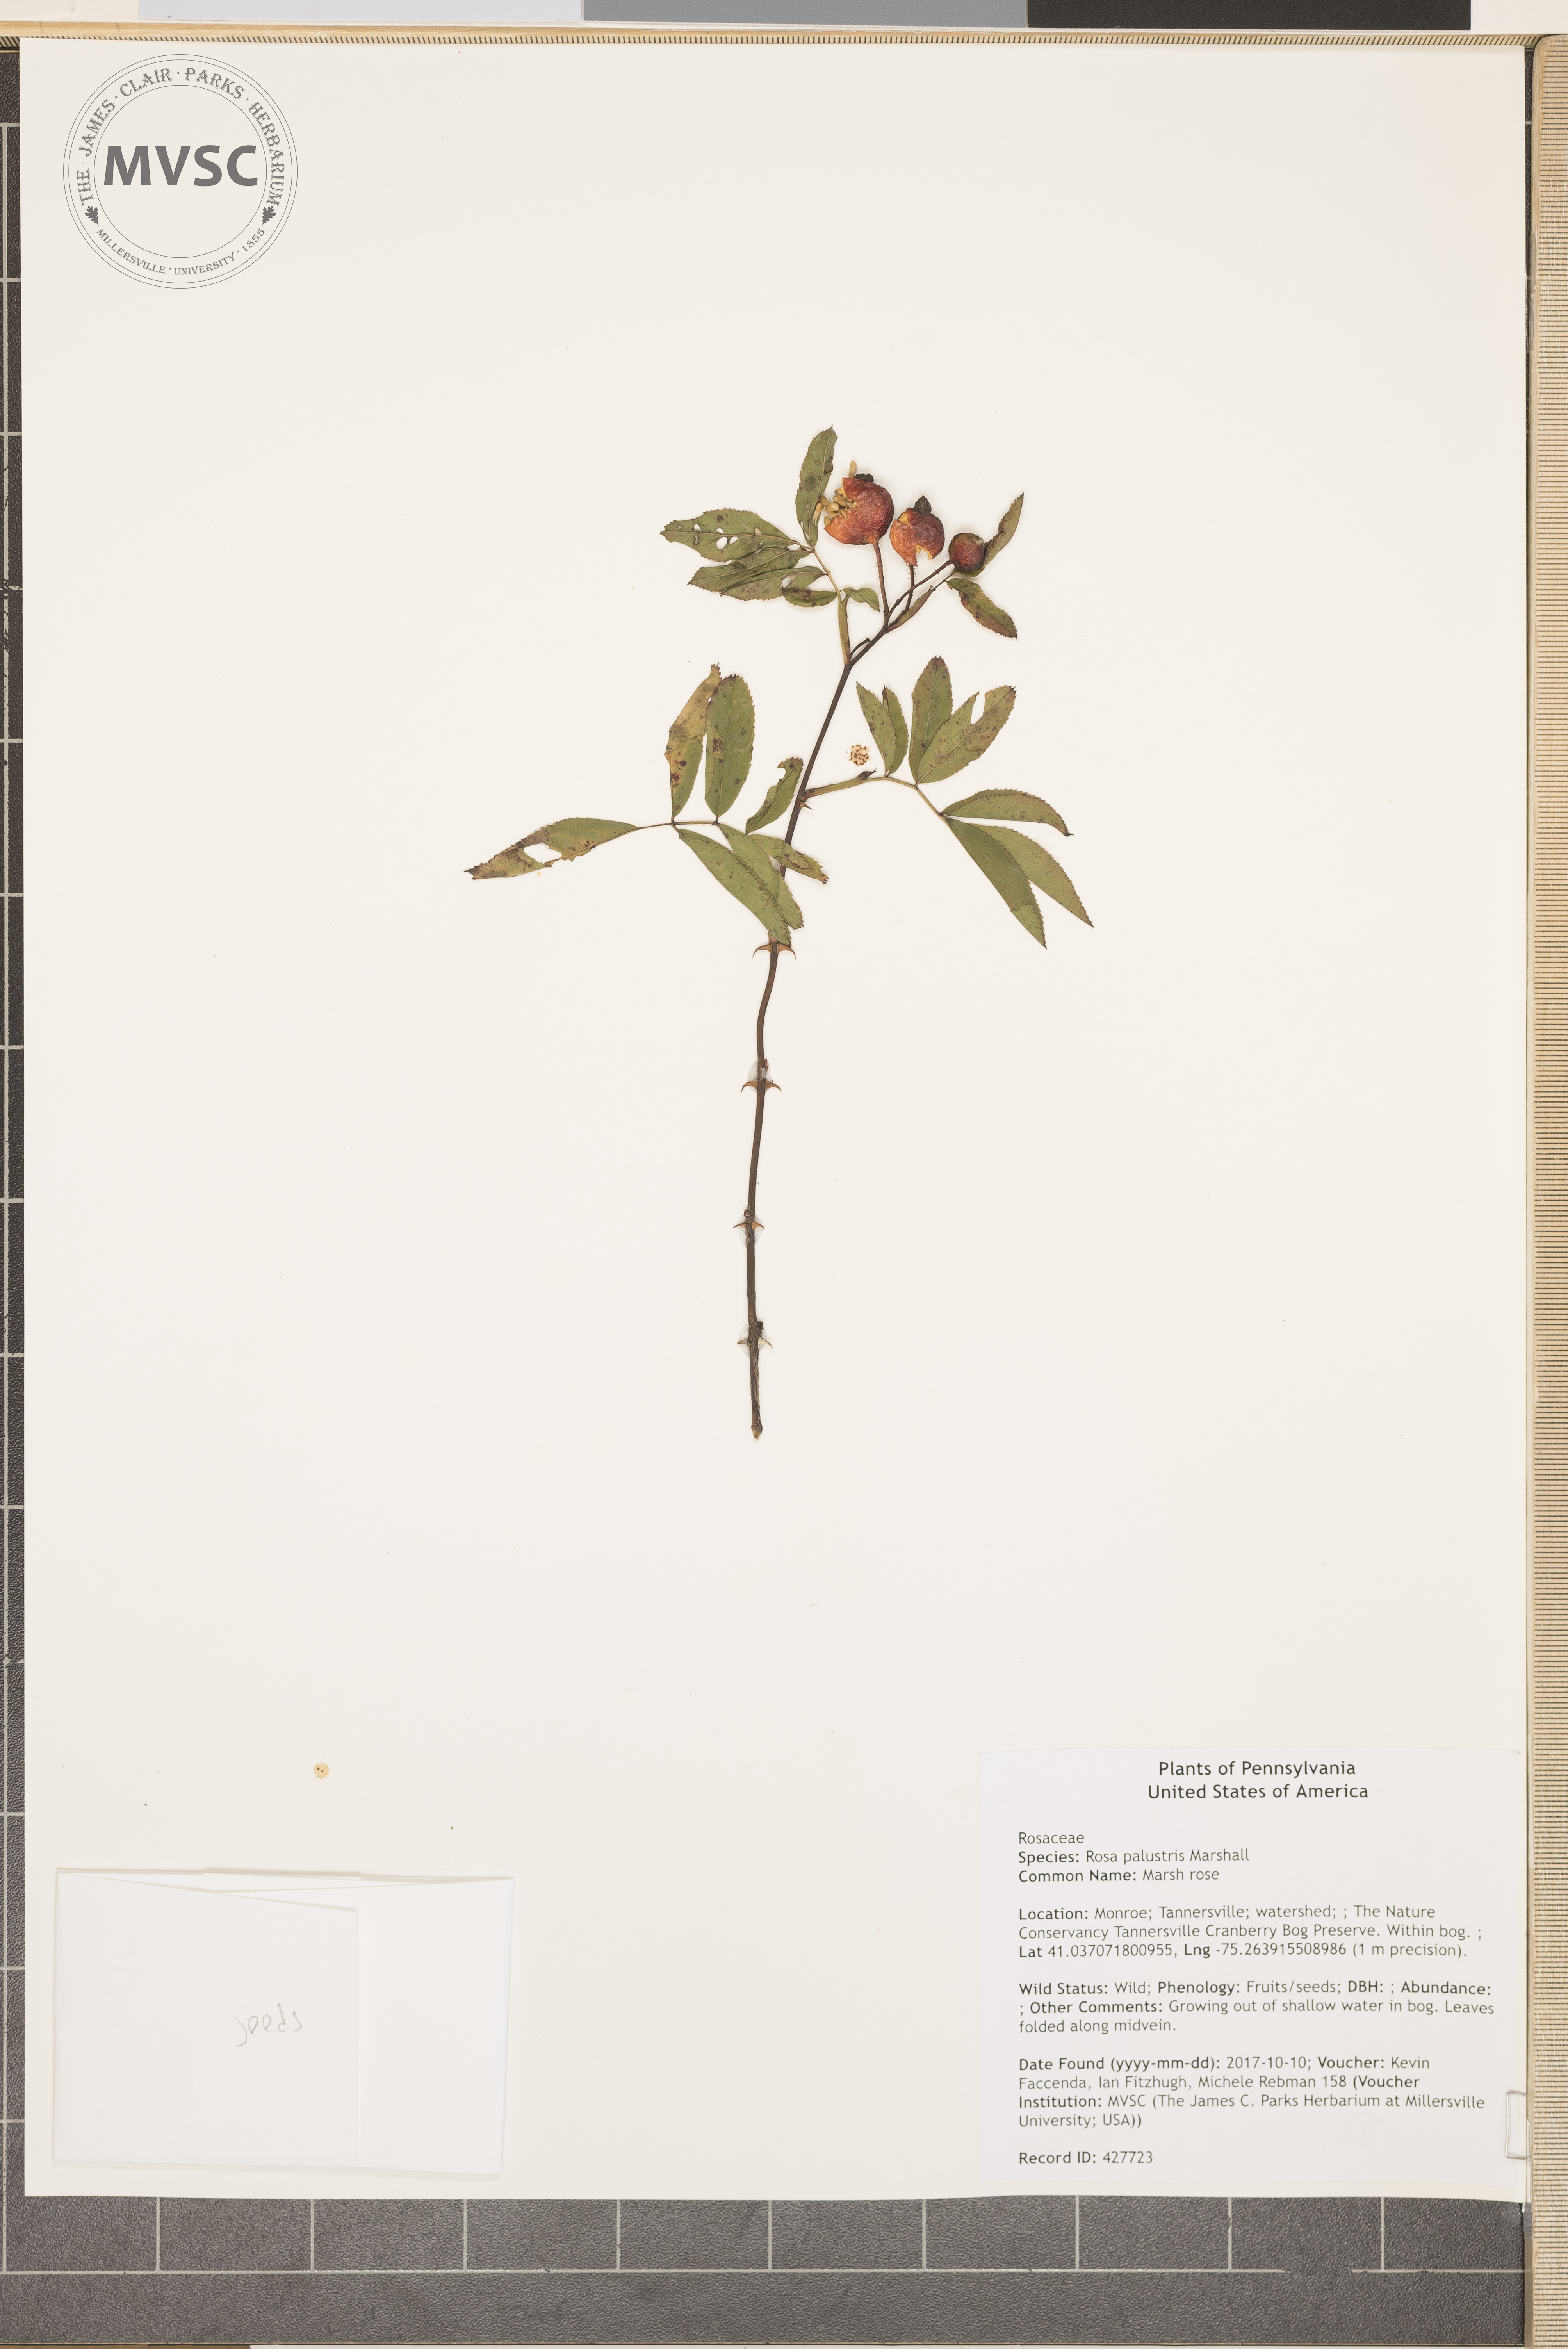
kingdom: Plantae
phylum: Tracheophyta
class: Magnoliopsida
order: Rosales
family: Rosaceae
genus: Rosa
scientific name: Rosa palustris
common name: Marsh rose
